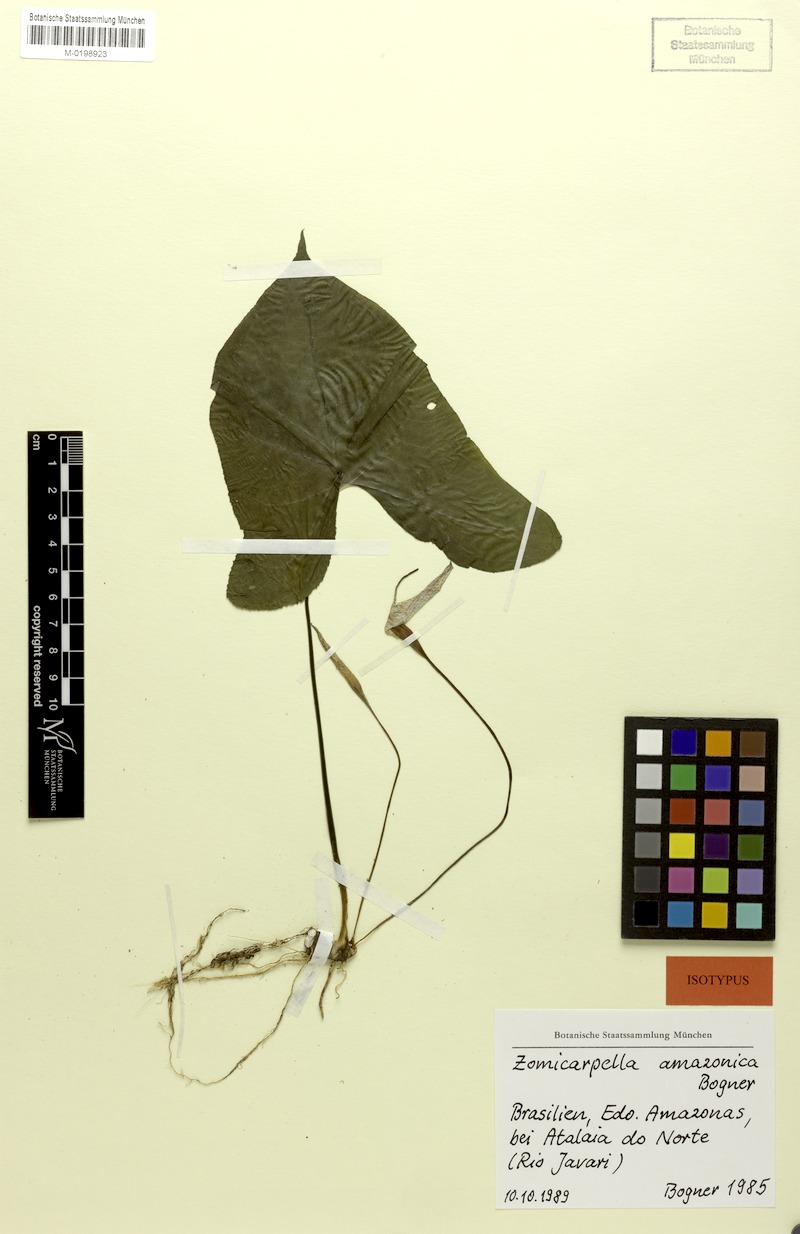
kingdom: Plantae
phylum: Tracheophyta
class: Liliopsida
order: Alismatales
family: Araceae
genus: Zomicarpella
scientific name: Zomicarpella amazonica
